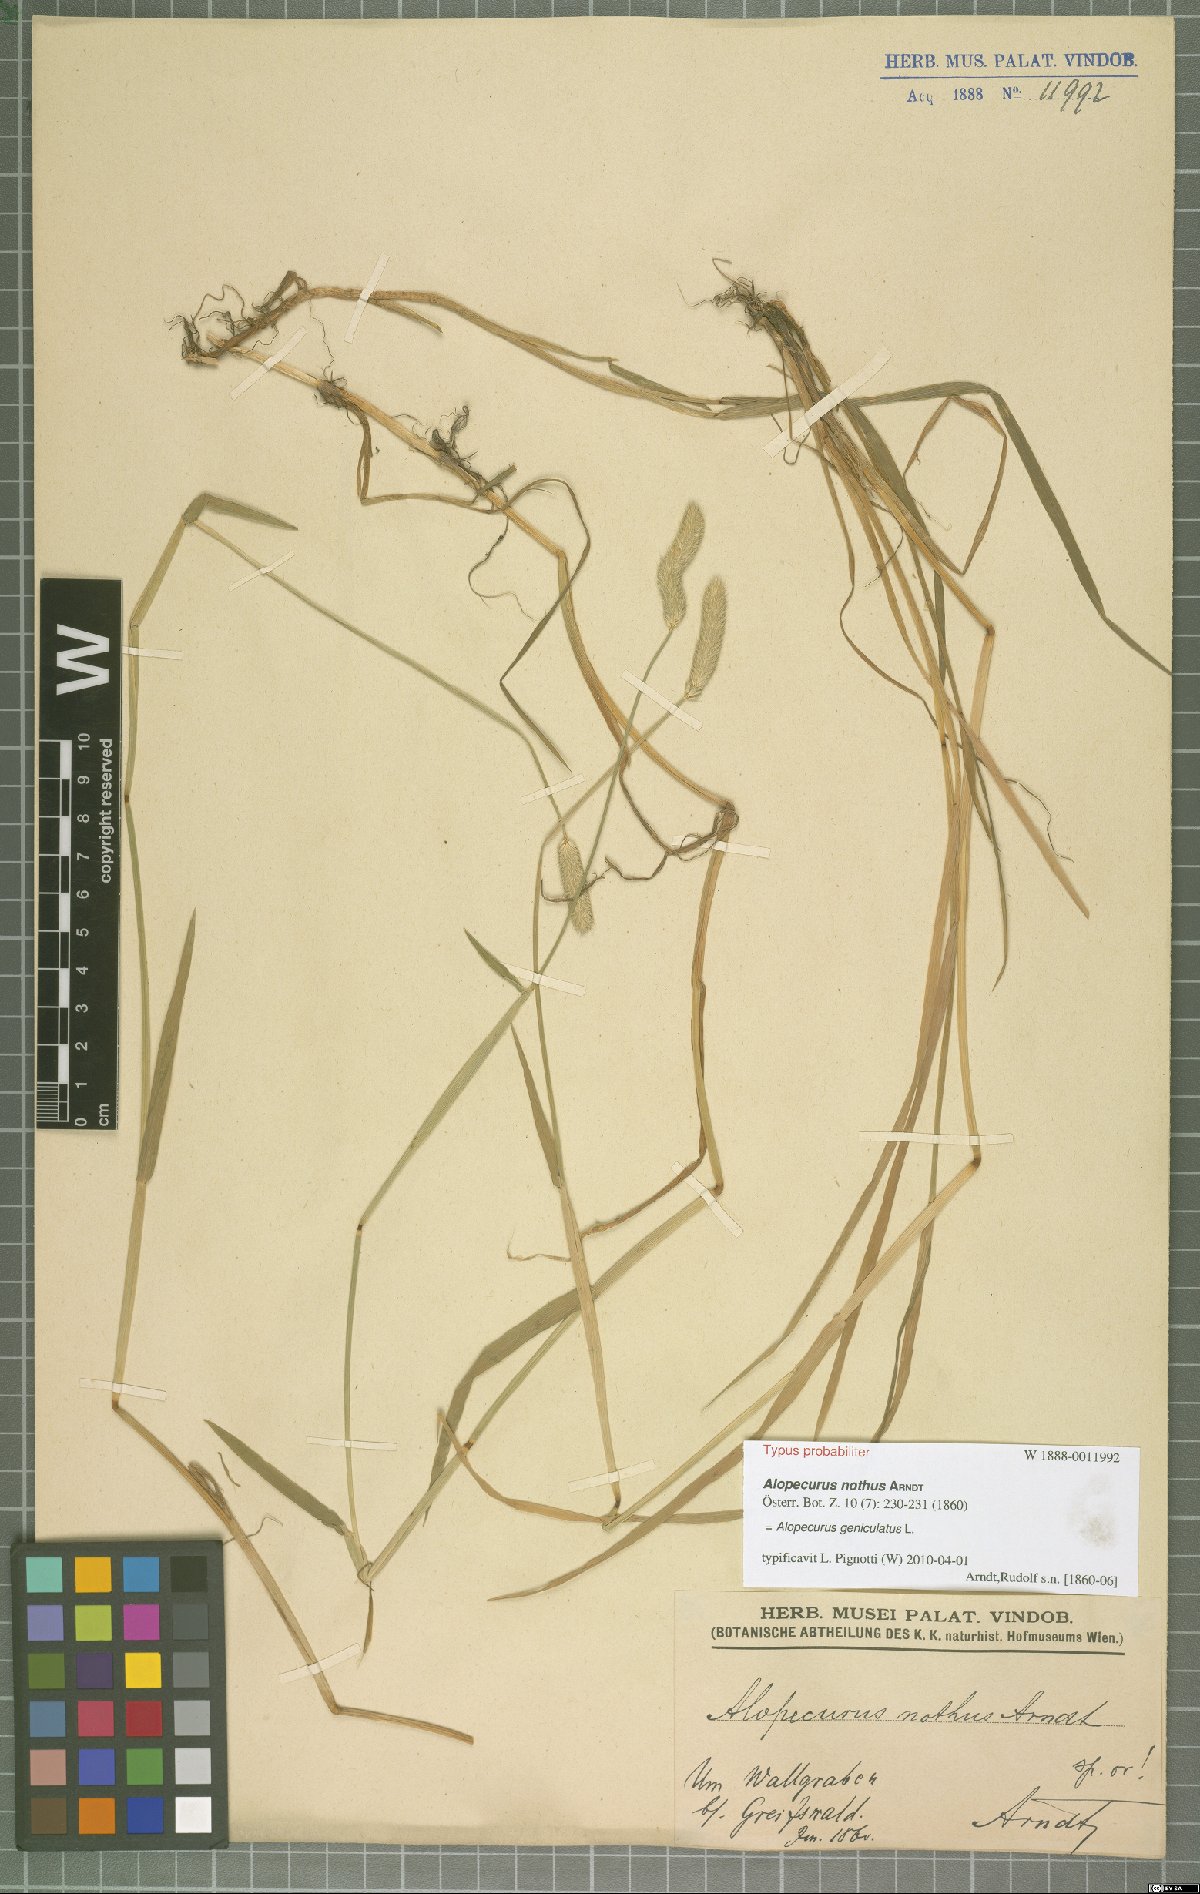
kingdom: Plantae
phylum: Tracheophyta
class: Liliopsida
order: Poales
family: Poaceae
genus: Alopecurus
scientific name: Alopecurus geniculatus
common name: Water foxtail
